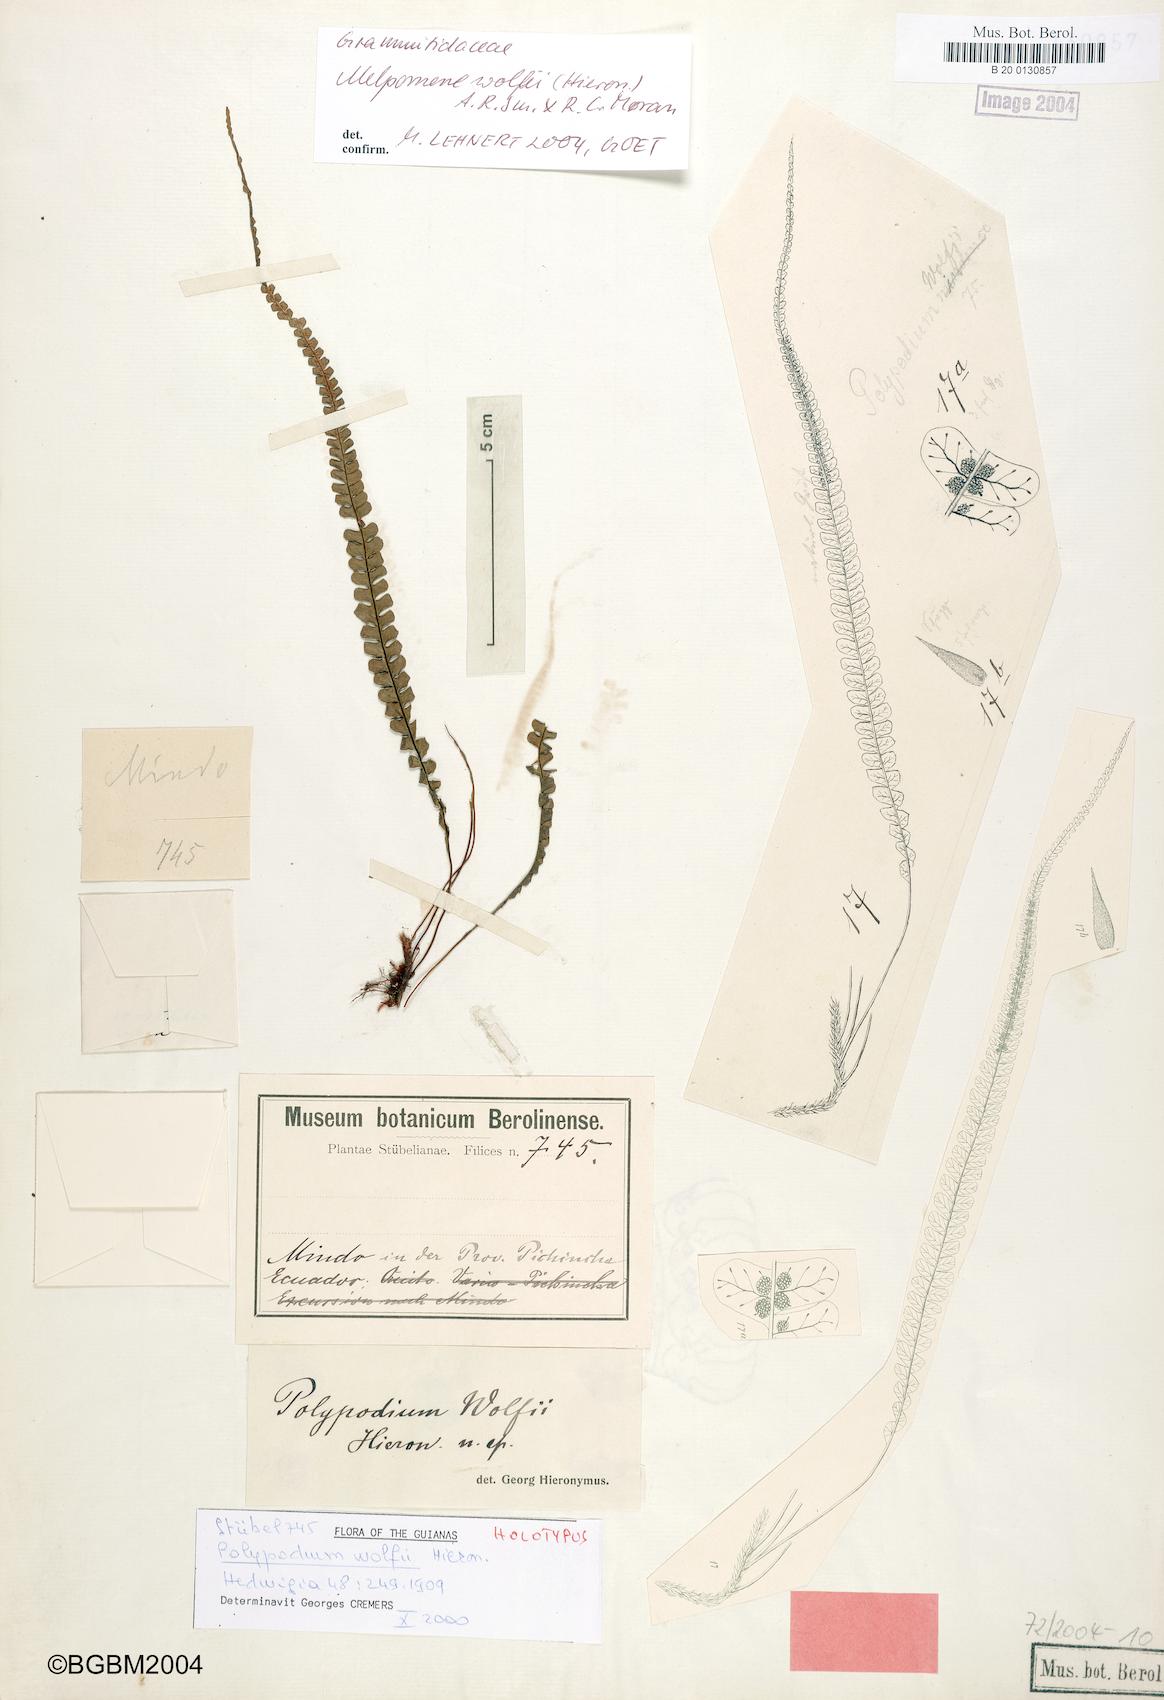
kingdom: Plantae
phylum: Tracheophyta
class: Polypodiopsida
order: Polypodiales
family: Polypodiaceae
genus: Melpomene
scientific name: Melpomene wolfii
